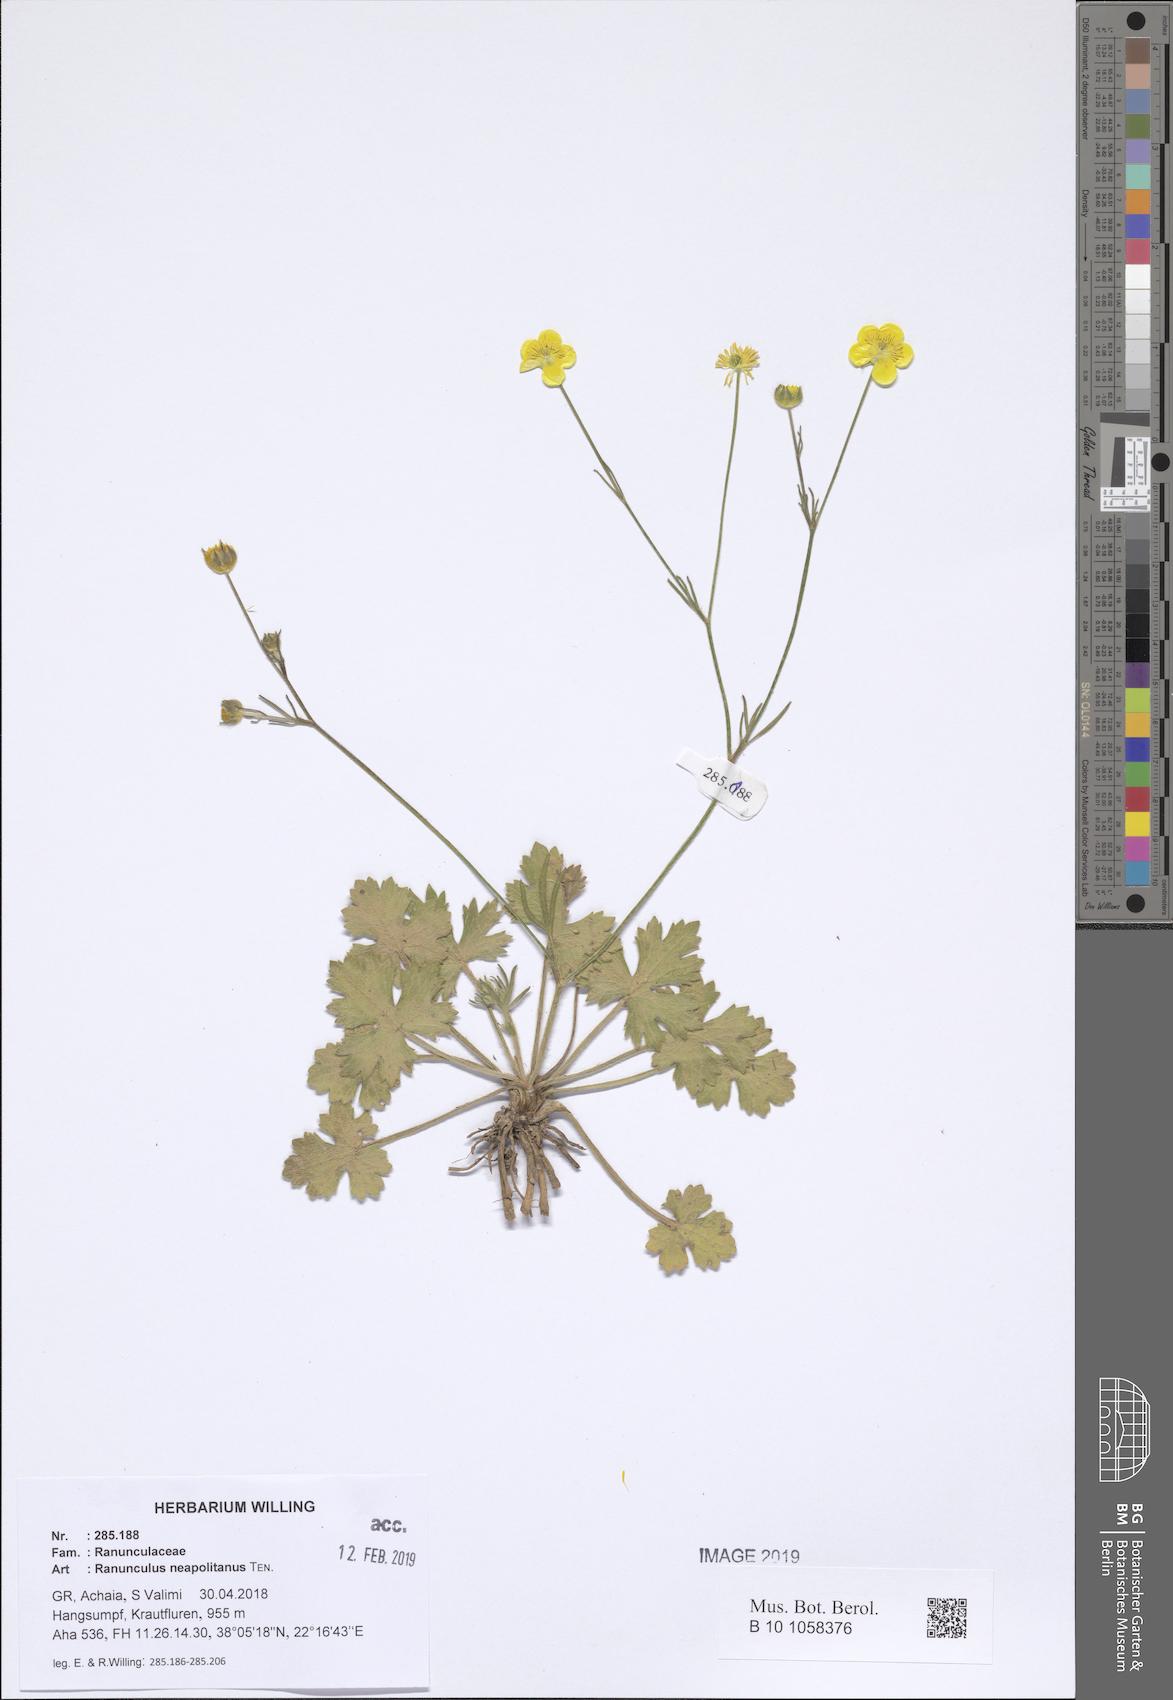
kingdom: Plantae
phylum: Tracheophyta
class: Magnoliopsida
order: Ranunculales
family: Ranunculaceae
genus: Ranunculus
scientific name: Ranunculus neapolitanus
